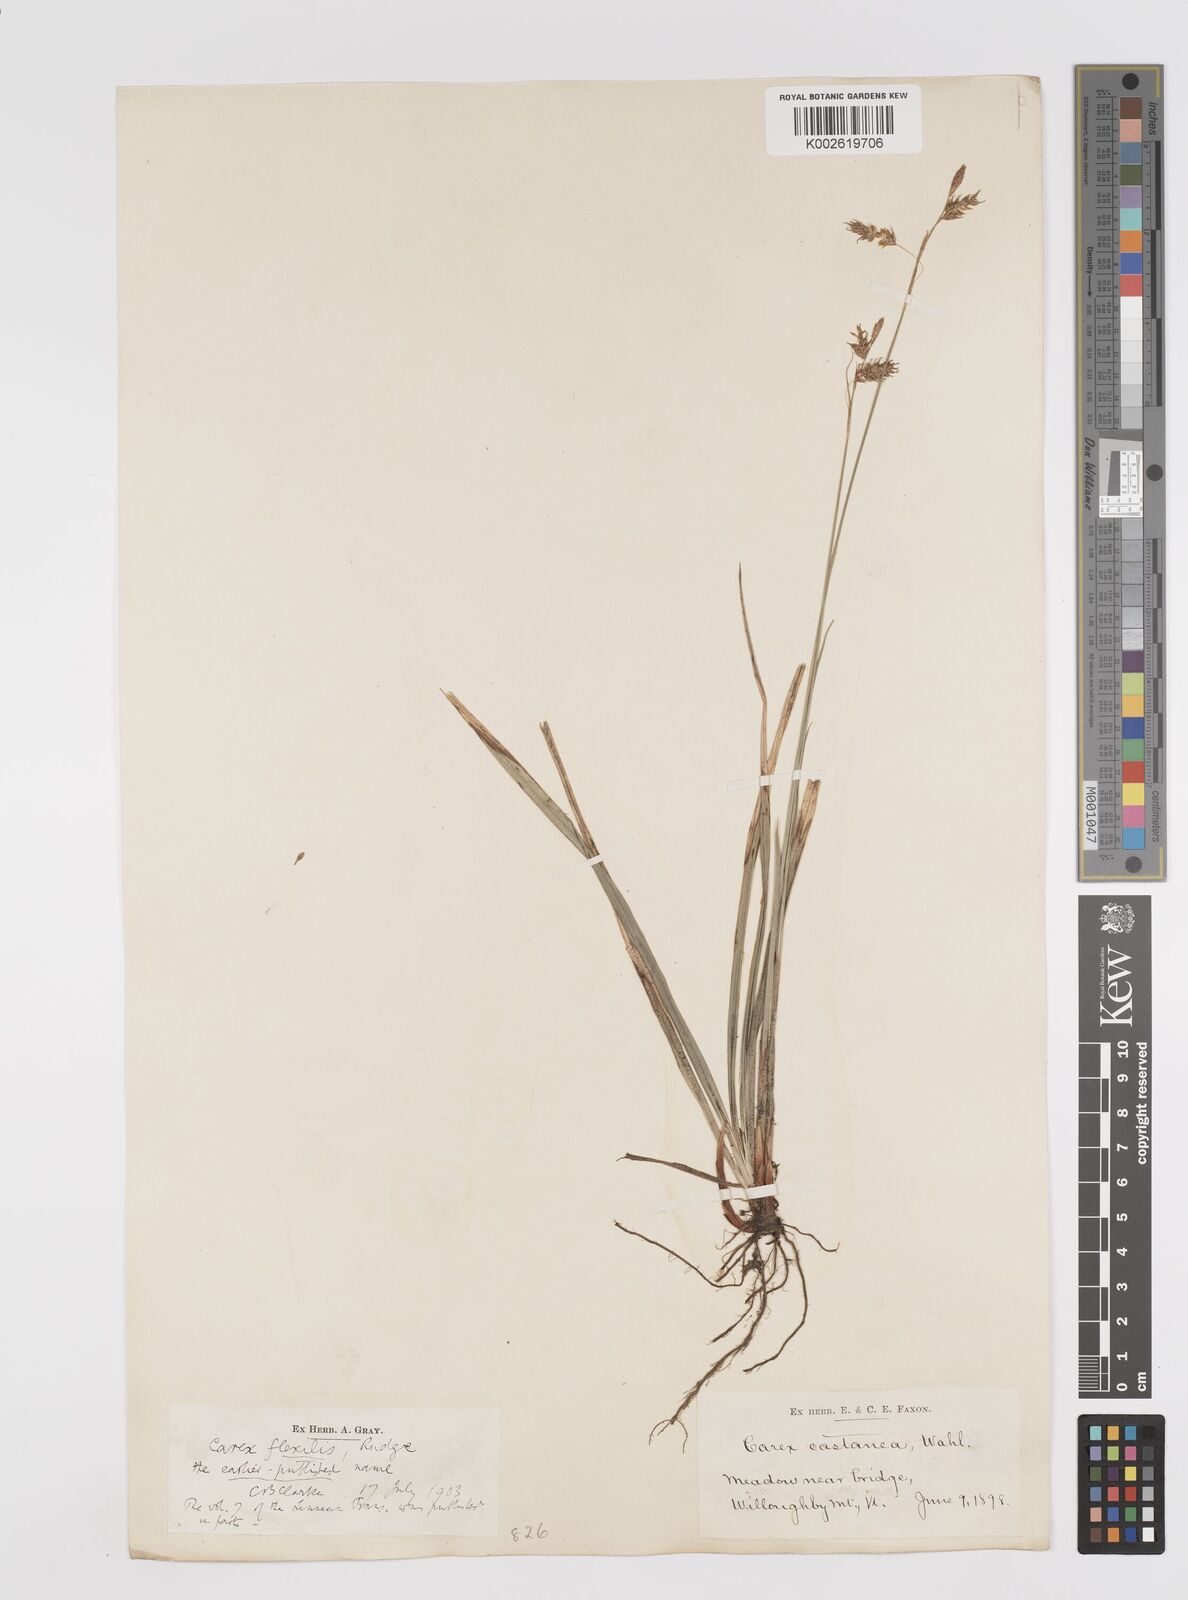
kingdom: Plantae
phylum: Tracheophyta
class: Liliopsida
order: Poales
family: Cyperaceae
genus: Carex
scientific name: Carex castanea
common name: Chestnut sedge
